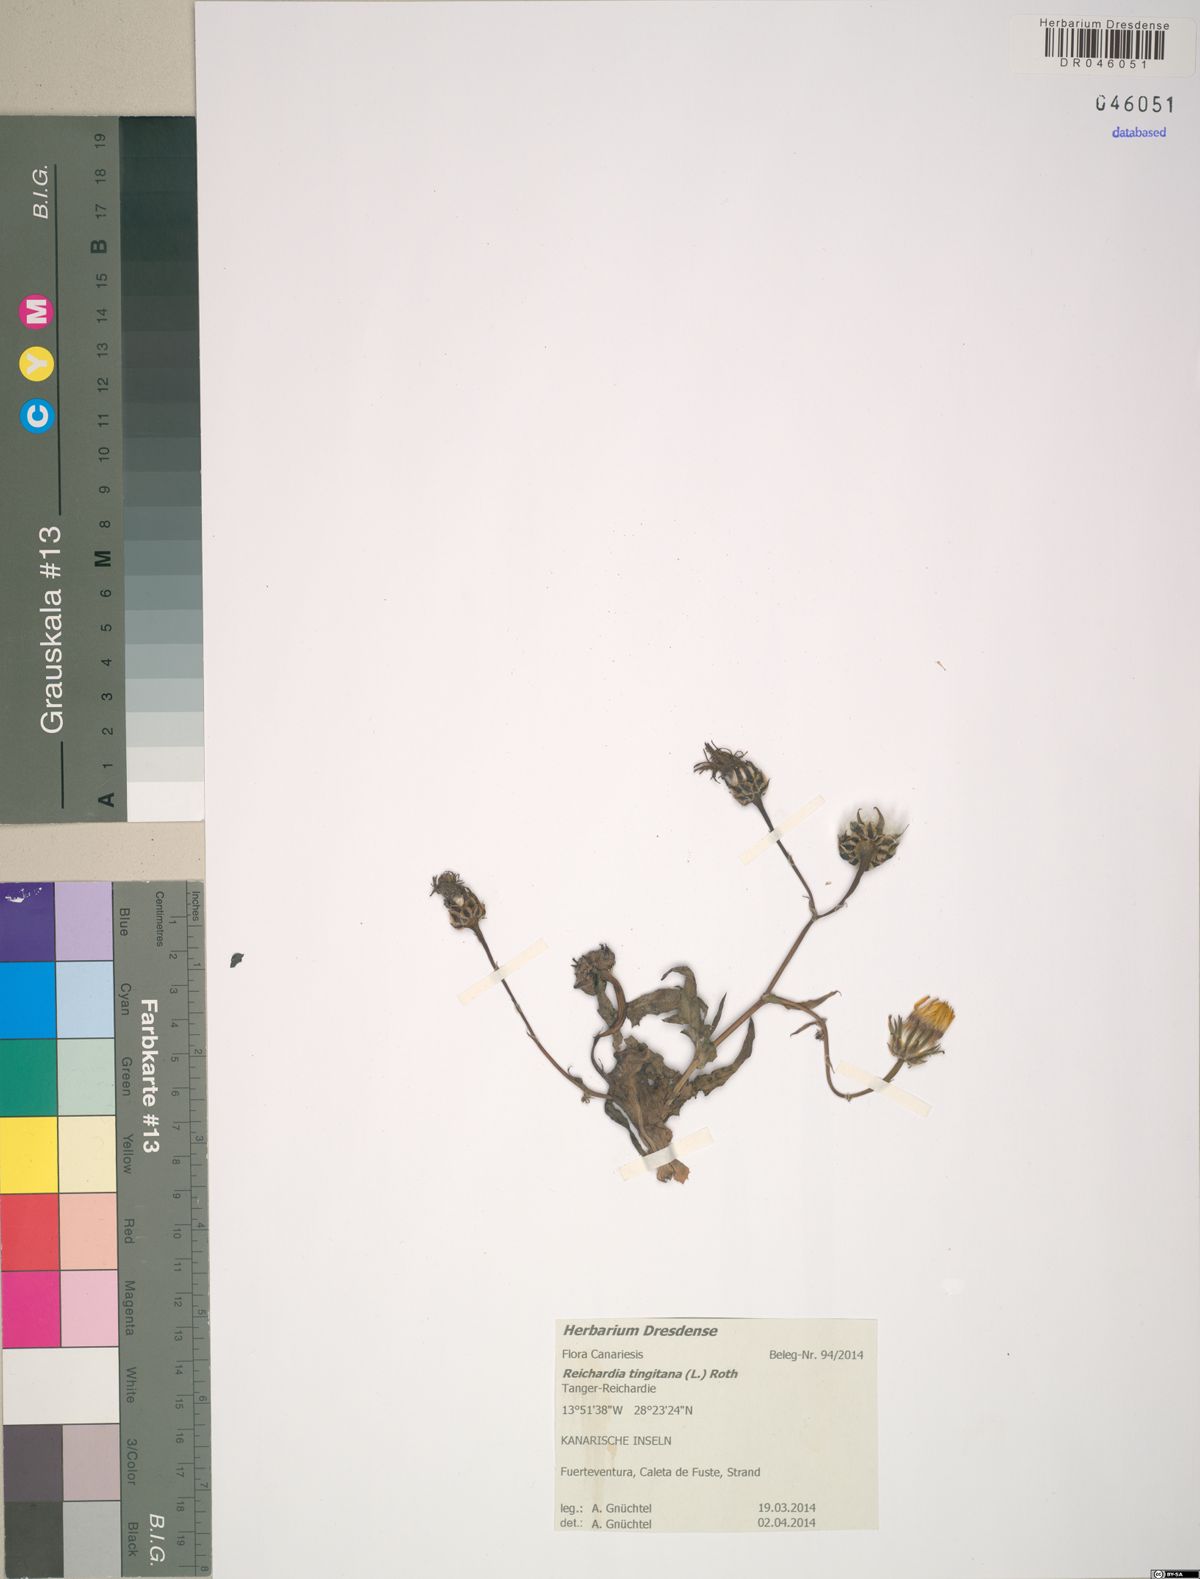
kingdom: Plantae
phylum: Tracheophyta
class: Magnoliopsida
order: Asterales
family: Asteraceae
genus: Reichardia
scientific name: Reichardia tingitana
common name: Reichardia
